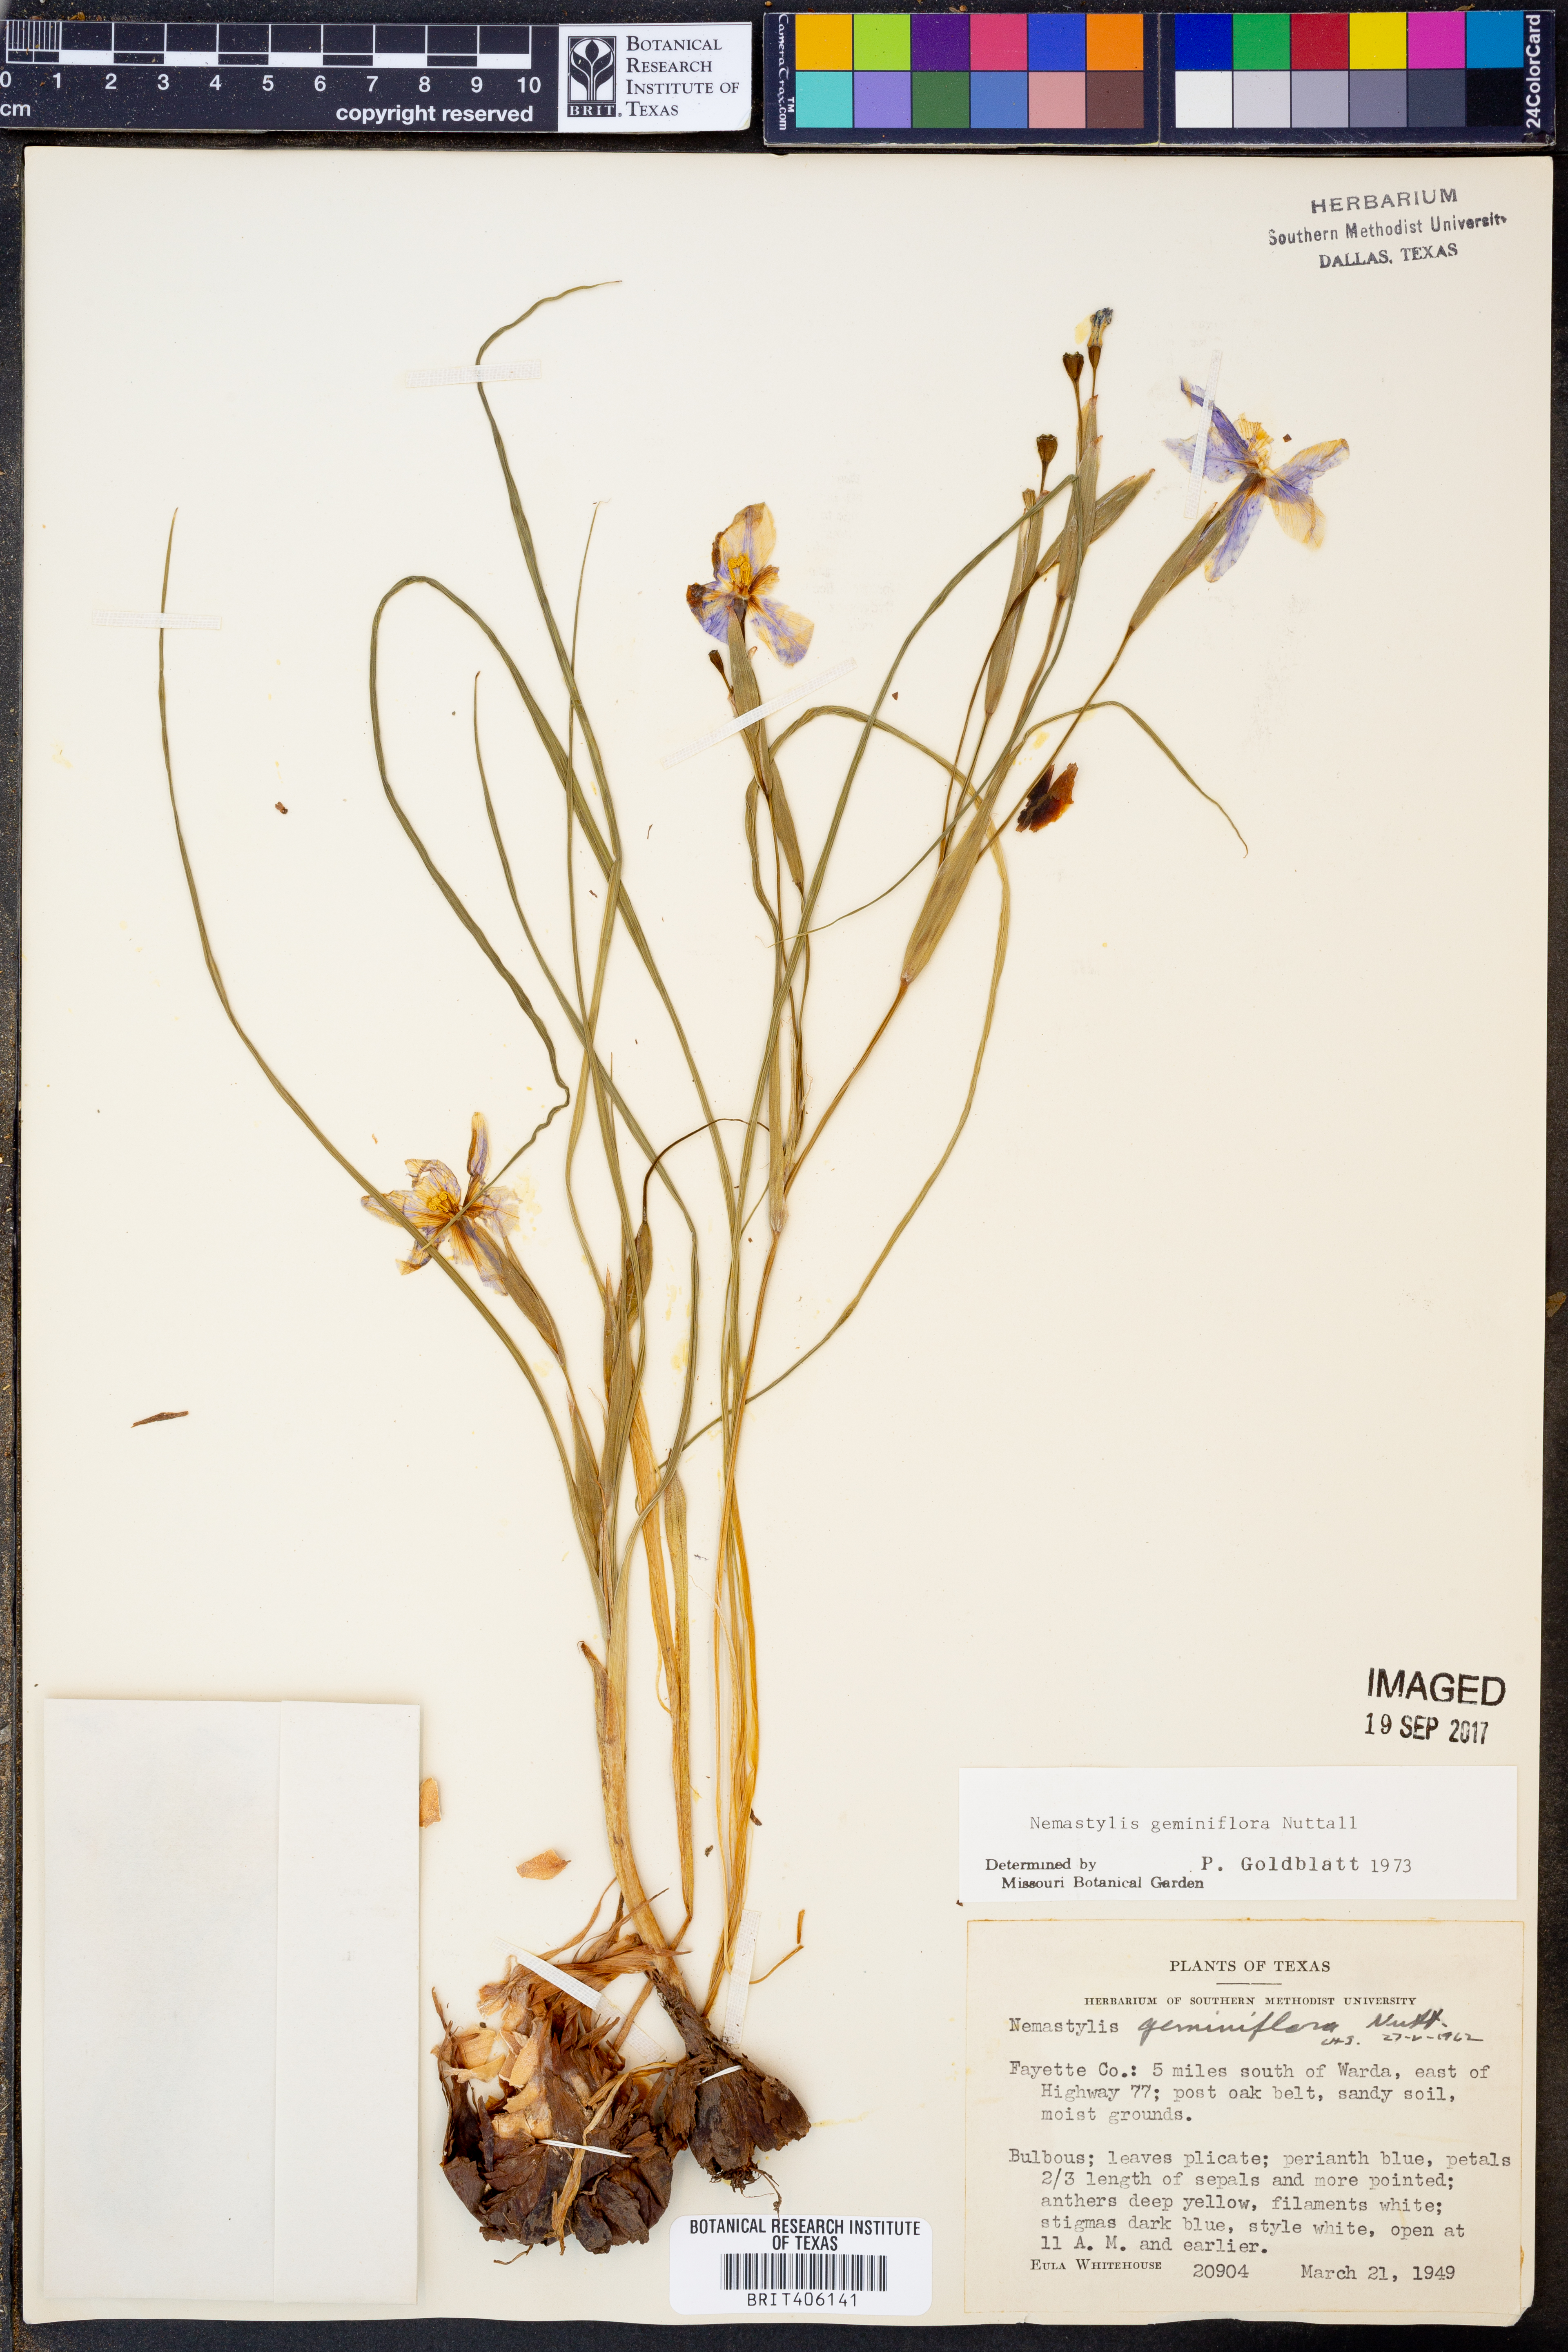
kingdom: Plantae
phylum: Tracheophyta
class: Liliopsida
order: Asparagales
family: Iridaceae
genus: Nemastylis
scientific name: Nemastylis geminiflora
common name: Prairie celestial
